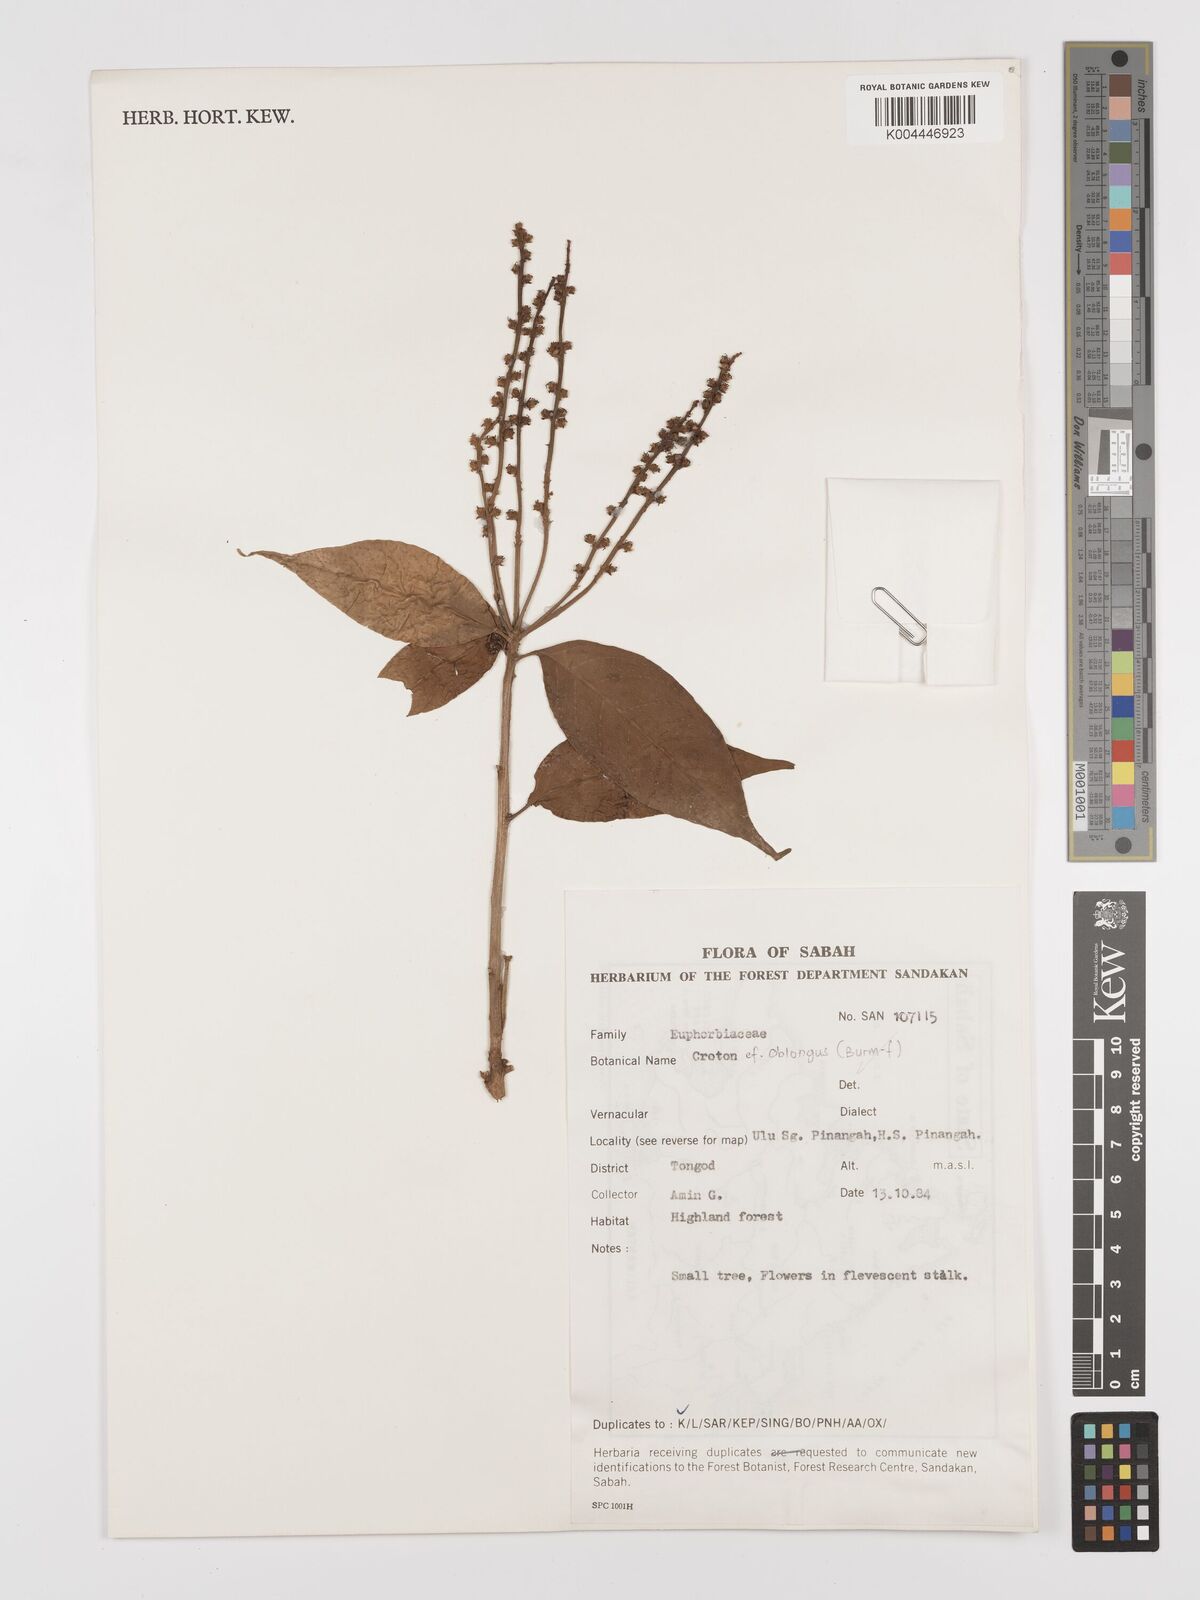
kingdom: Plantae
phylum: Tracheophyta
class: Magnoliopsida
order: Malpighiales
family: Euphorbiaceae
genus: Croton
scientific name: Croton oblongus
